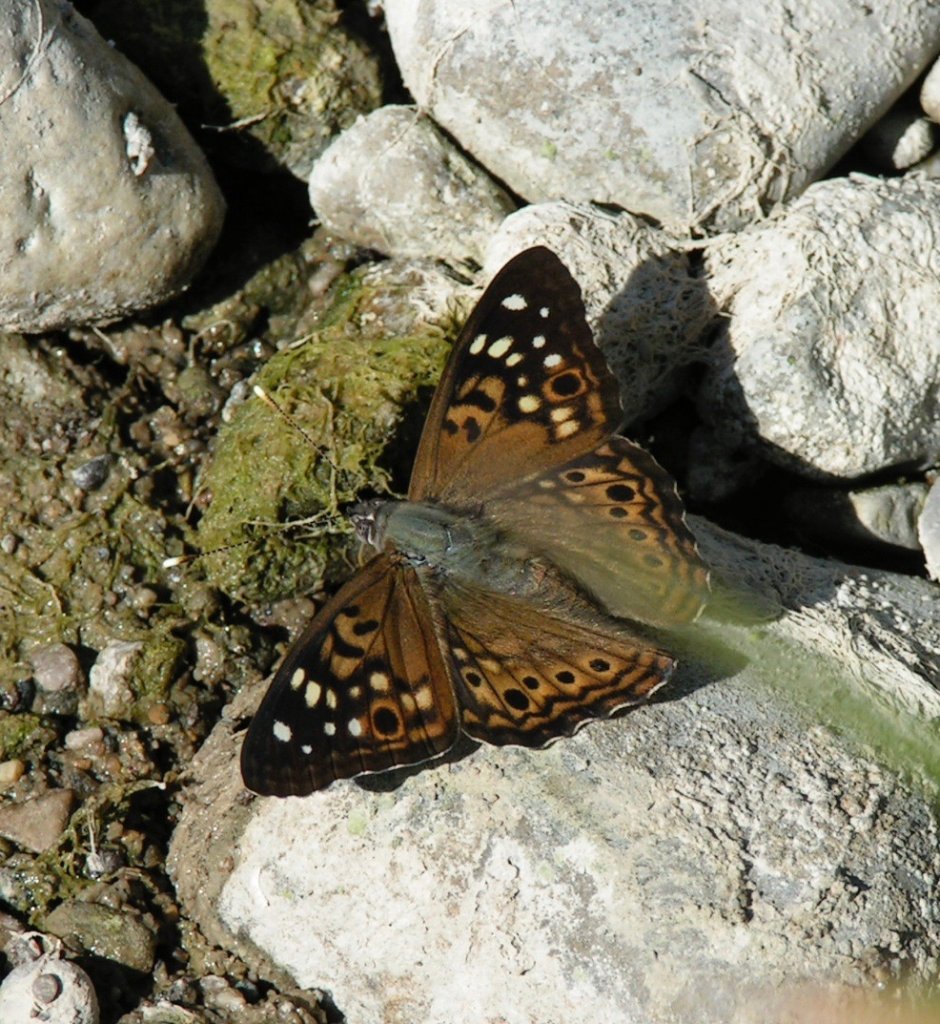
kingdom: Animalia
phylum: Arthropoda
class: Insecta
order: Lepidoptera
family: Nymphalidae
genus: Asterocampa
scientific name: Asterocampa celtis
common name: Hackberry Emperor
